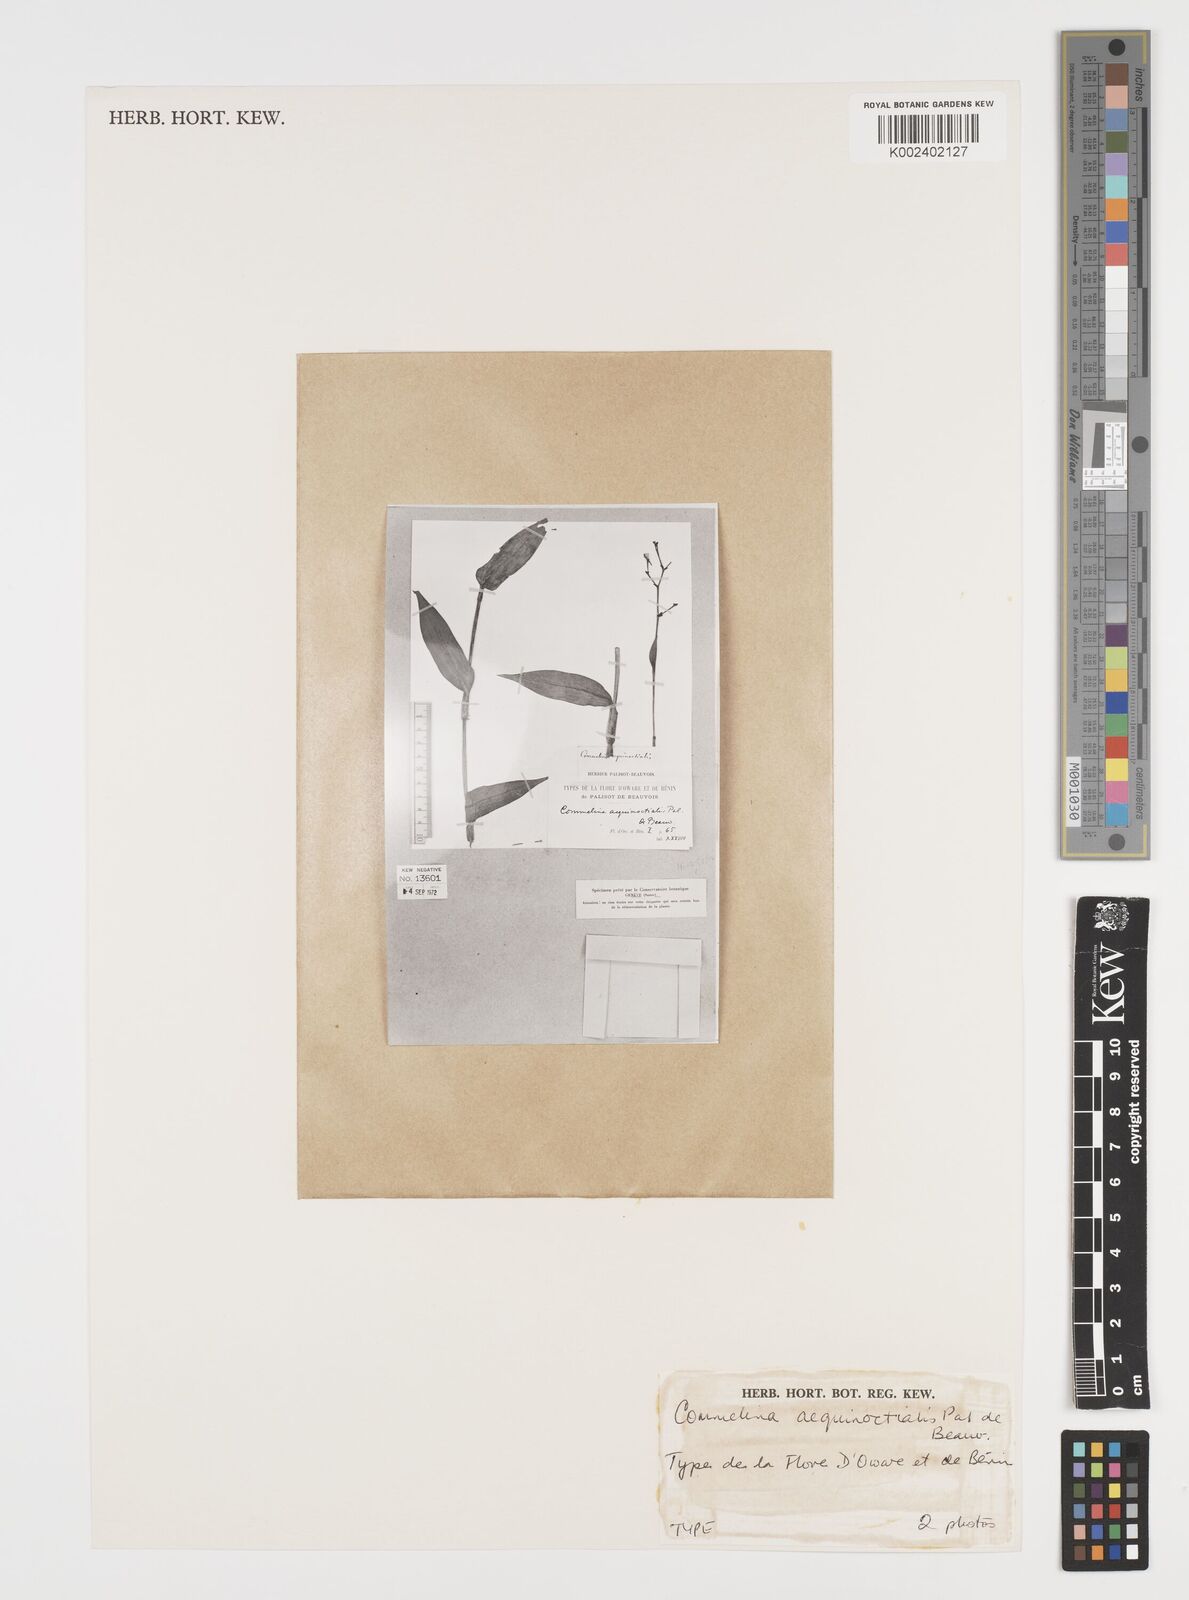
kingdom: Plantae
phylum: Tracheophyta
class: Liliopsida
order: Commelinales
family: Commelinaceae
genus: Aneilema
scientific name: Aneilema aequinoctiale
